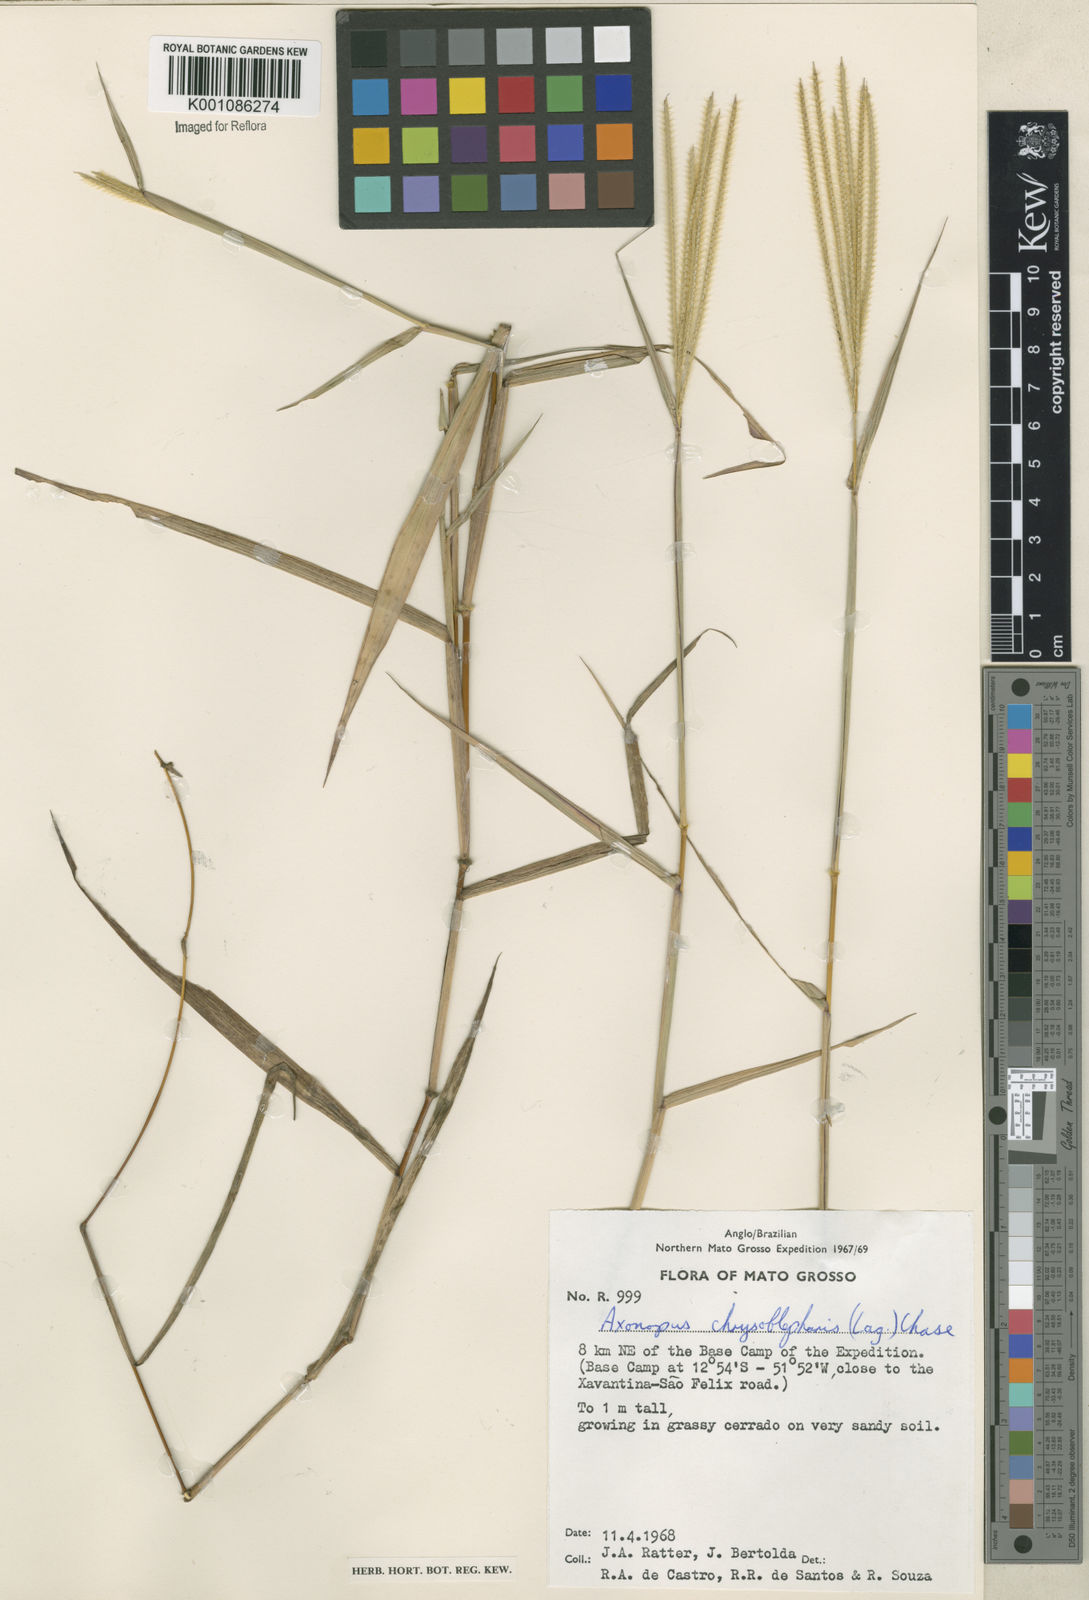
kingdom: Plantae
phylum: Tracheophyta
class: Liliopsida
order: Poales
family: Poaceae
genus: Axonopus
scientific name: Axonopus chrysoblepharis
